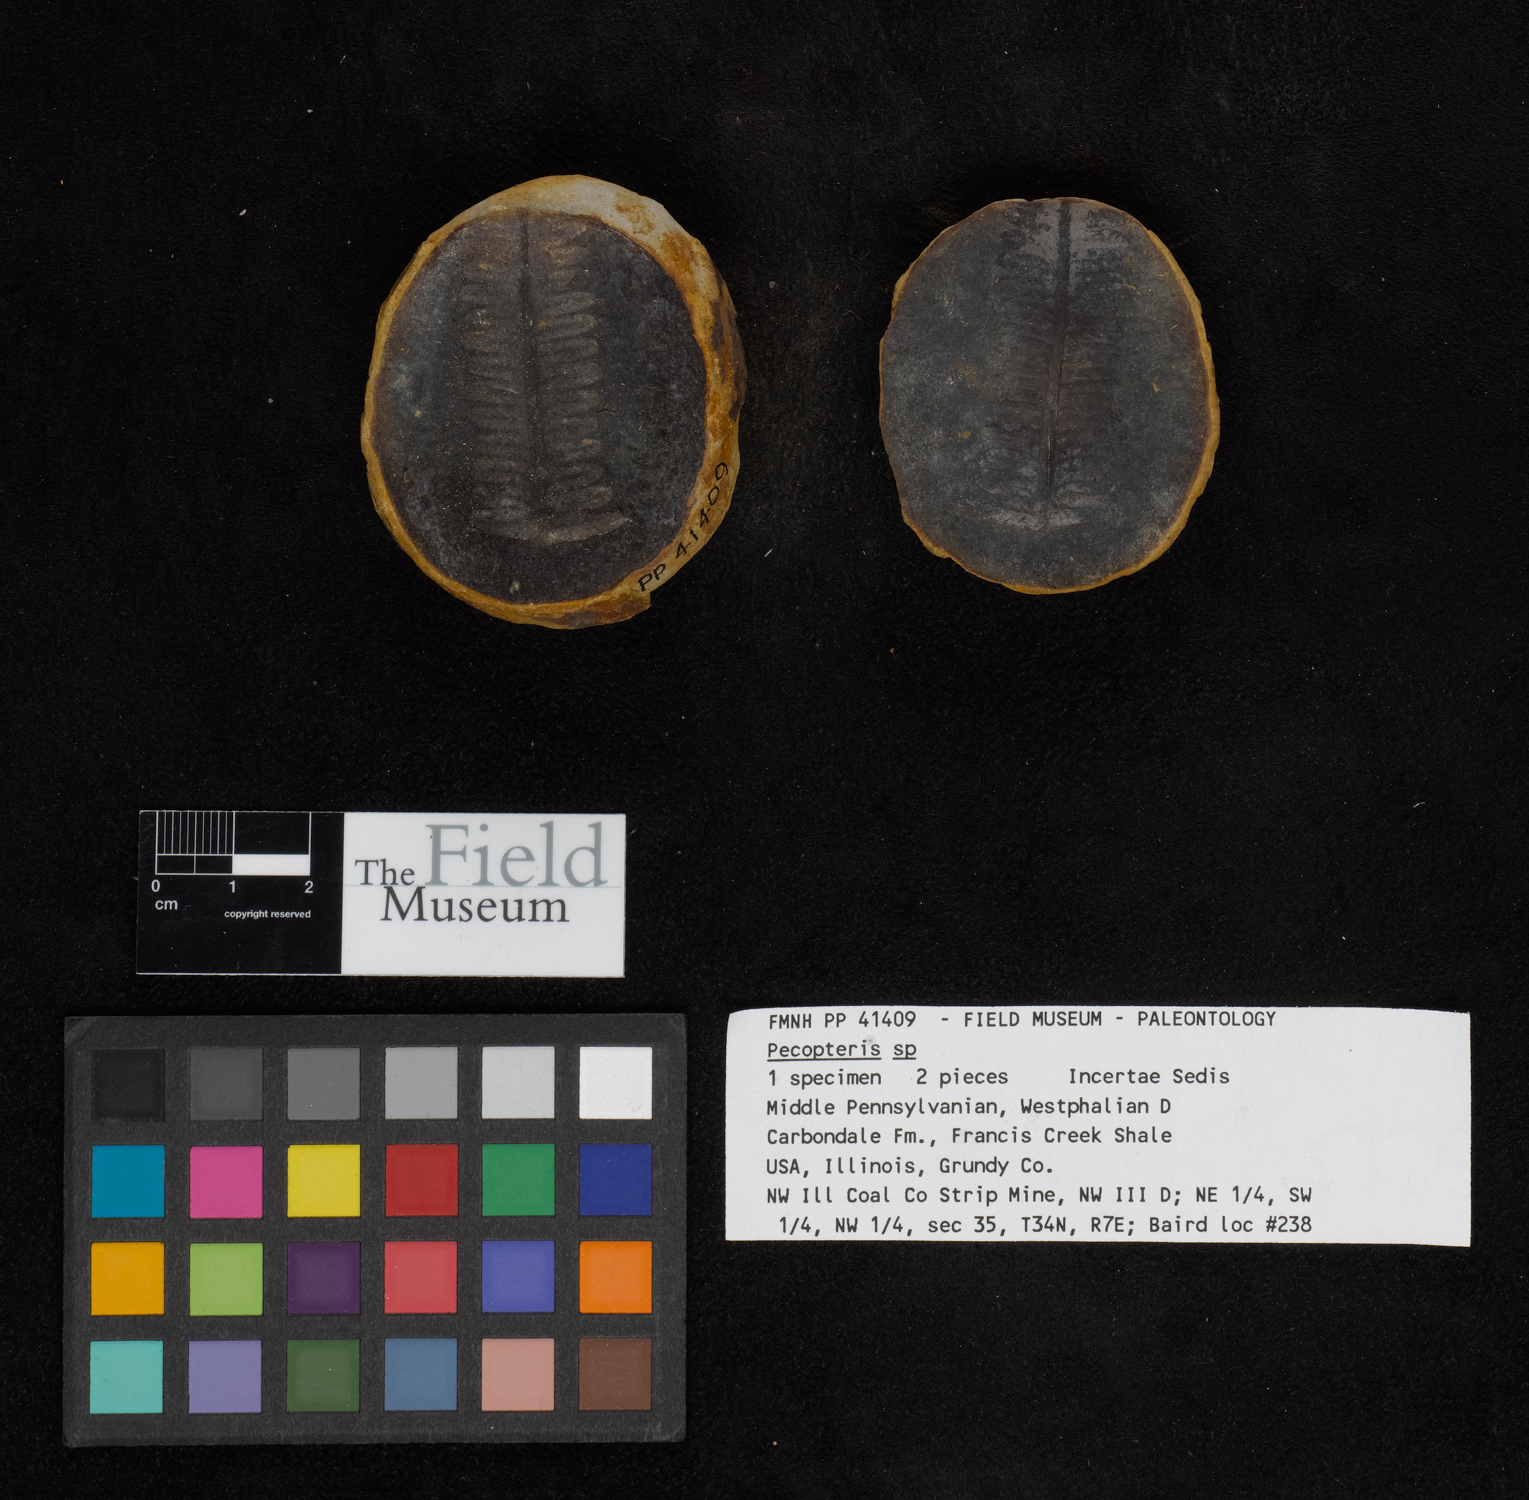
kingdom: Plantae
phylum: Tracheophyta
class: Polypodiopsida
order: Marattiales
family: Asterothecaceae
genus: Pecopteris
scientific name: Pecopteris
